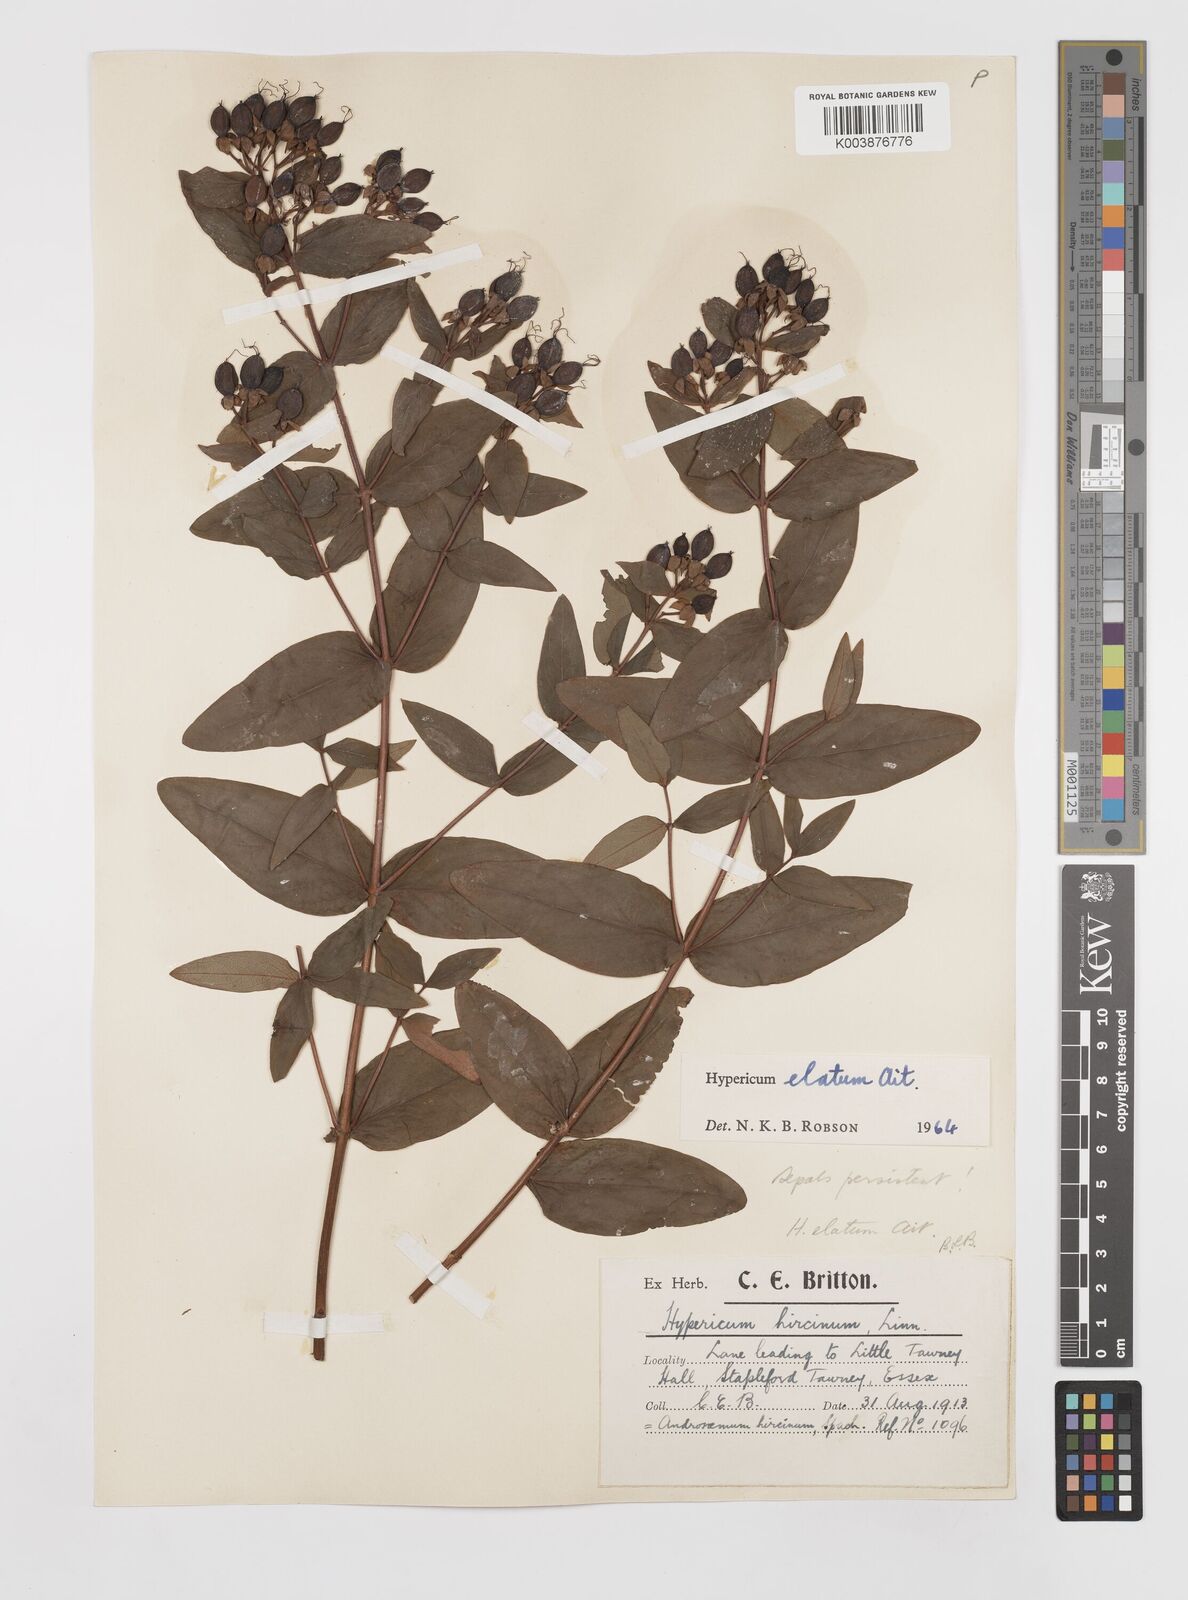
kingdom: Plantae
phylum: Tracheophyta
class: Magnoliopsida
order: Malpighiales
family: Hypericaceae
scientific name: Hypericaceae
